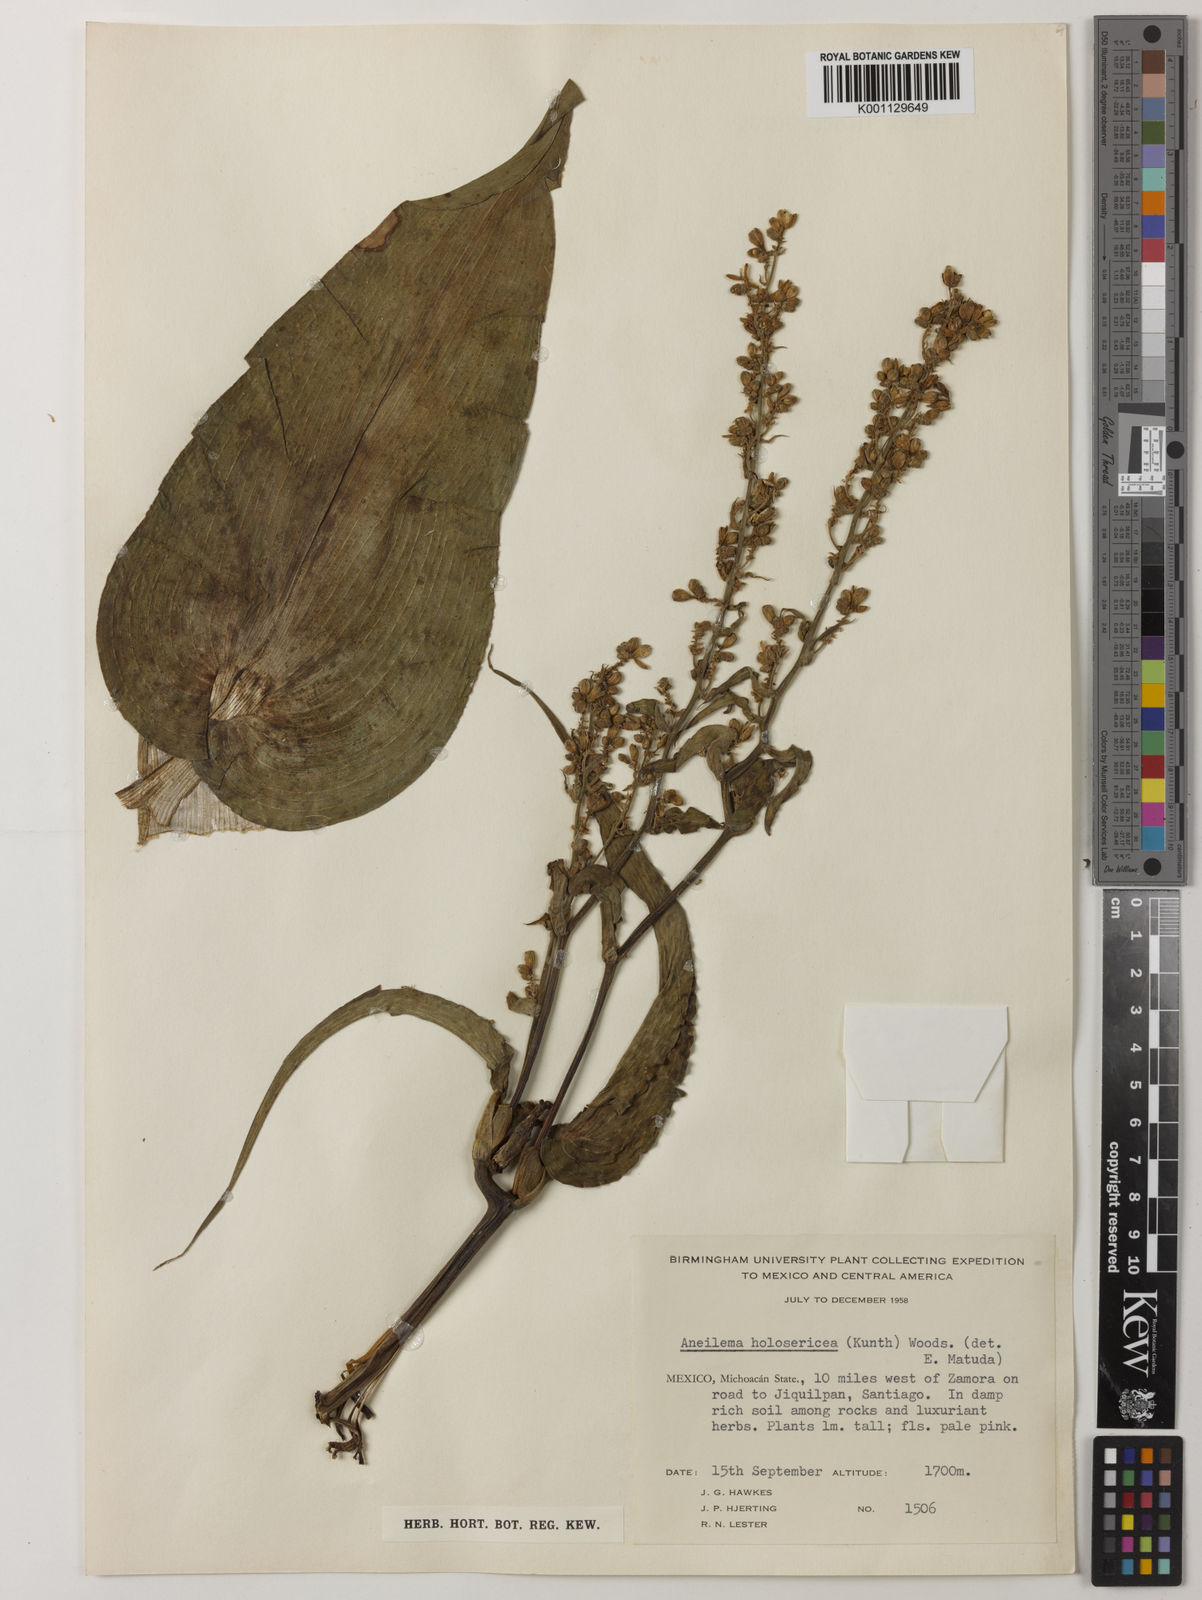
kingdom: Plantae
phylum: Tracheophyta
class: Liliopsida
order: Commelinales
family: Commelinaceae
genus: Thyrsanthemum
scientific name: Thyrsanthemum floribundum
